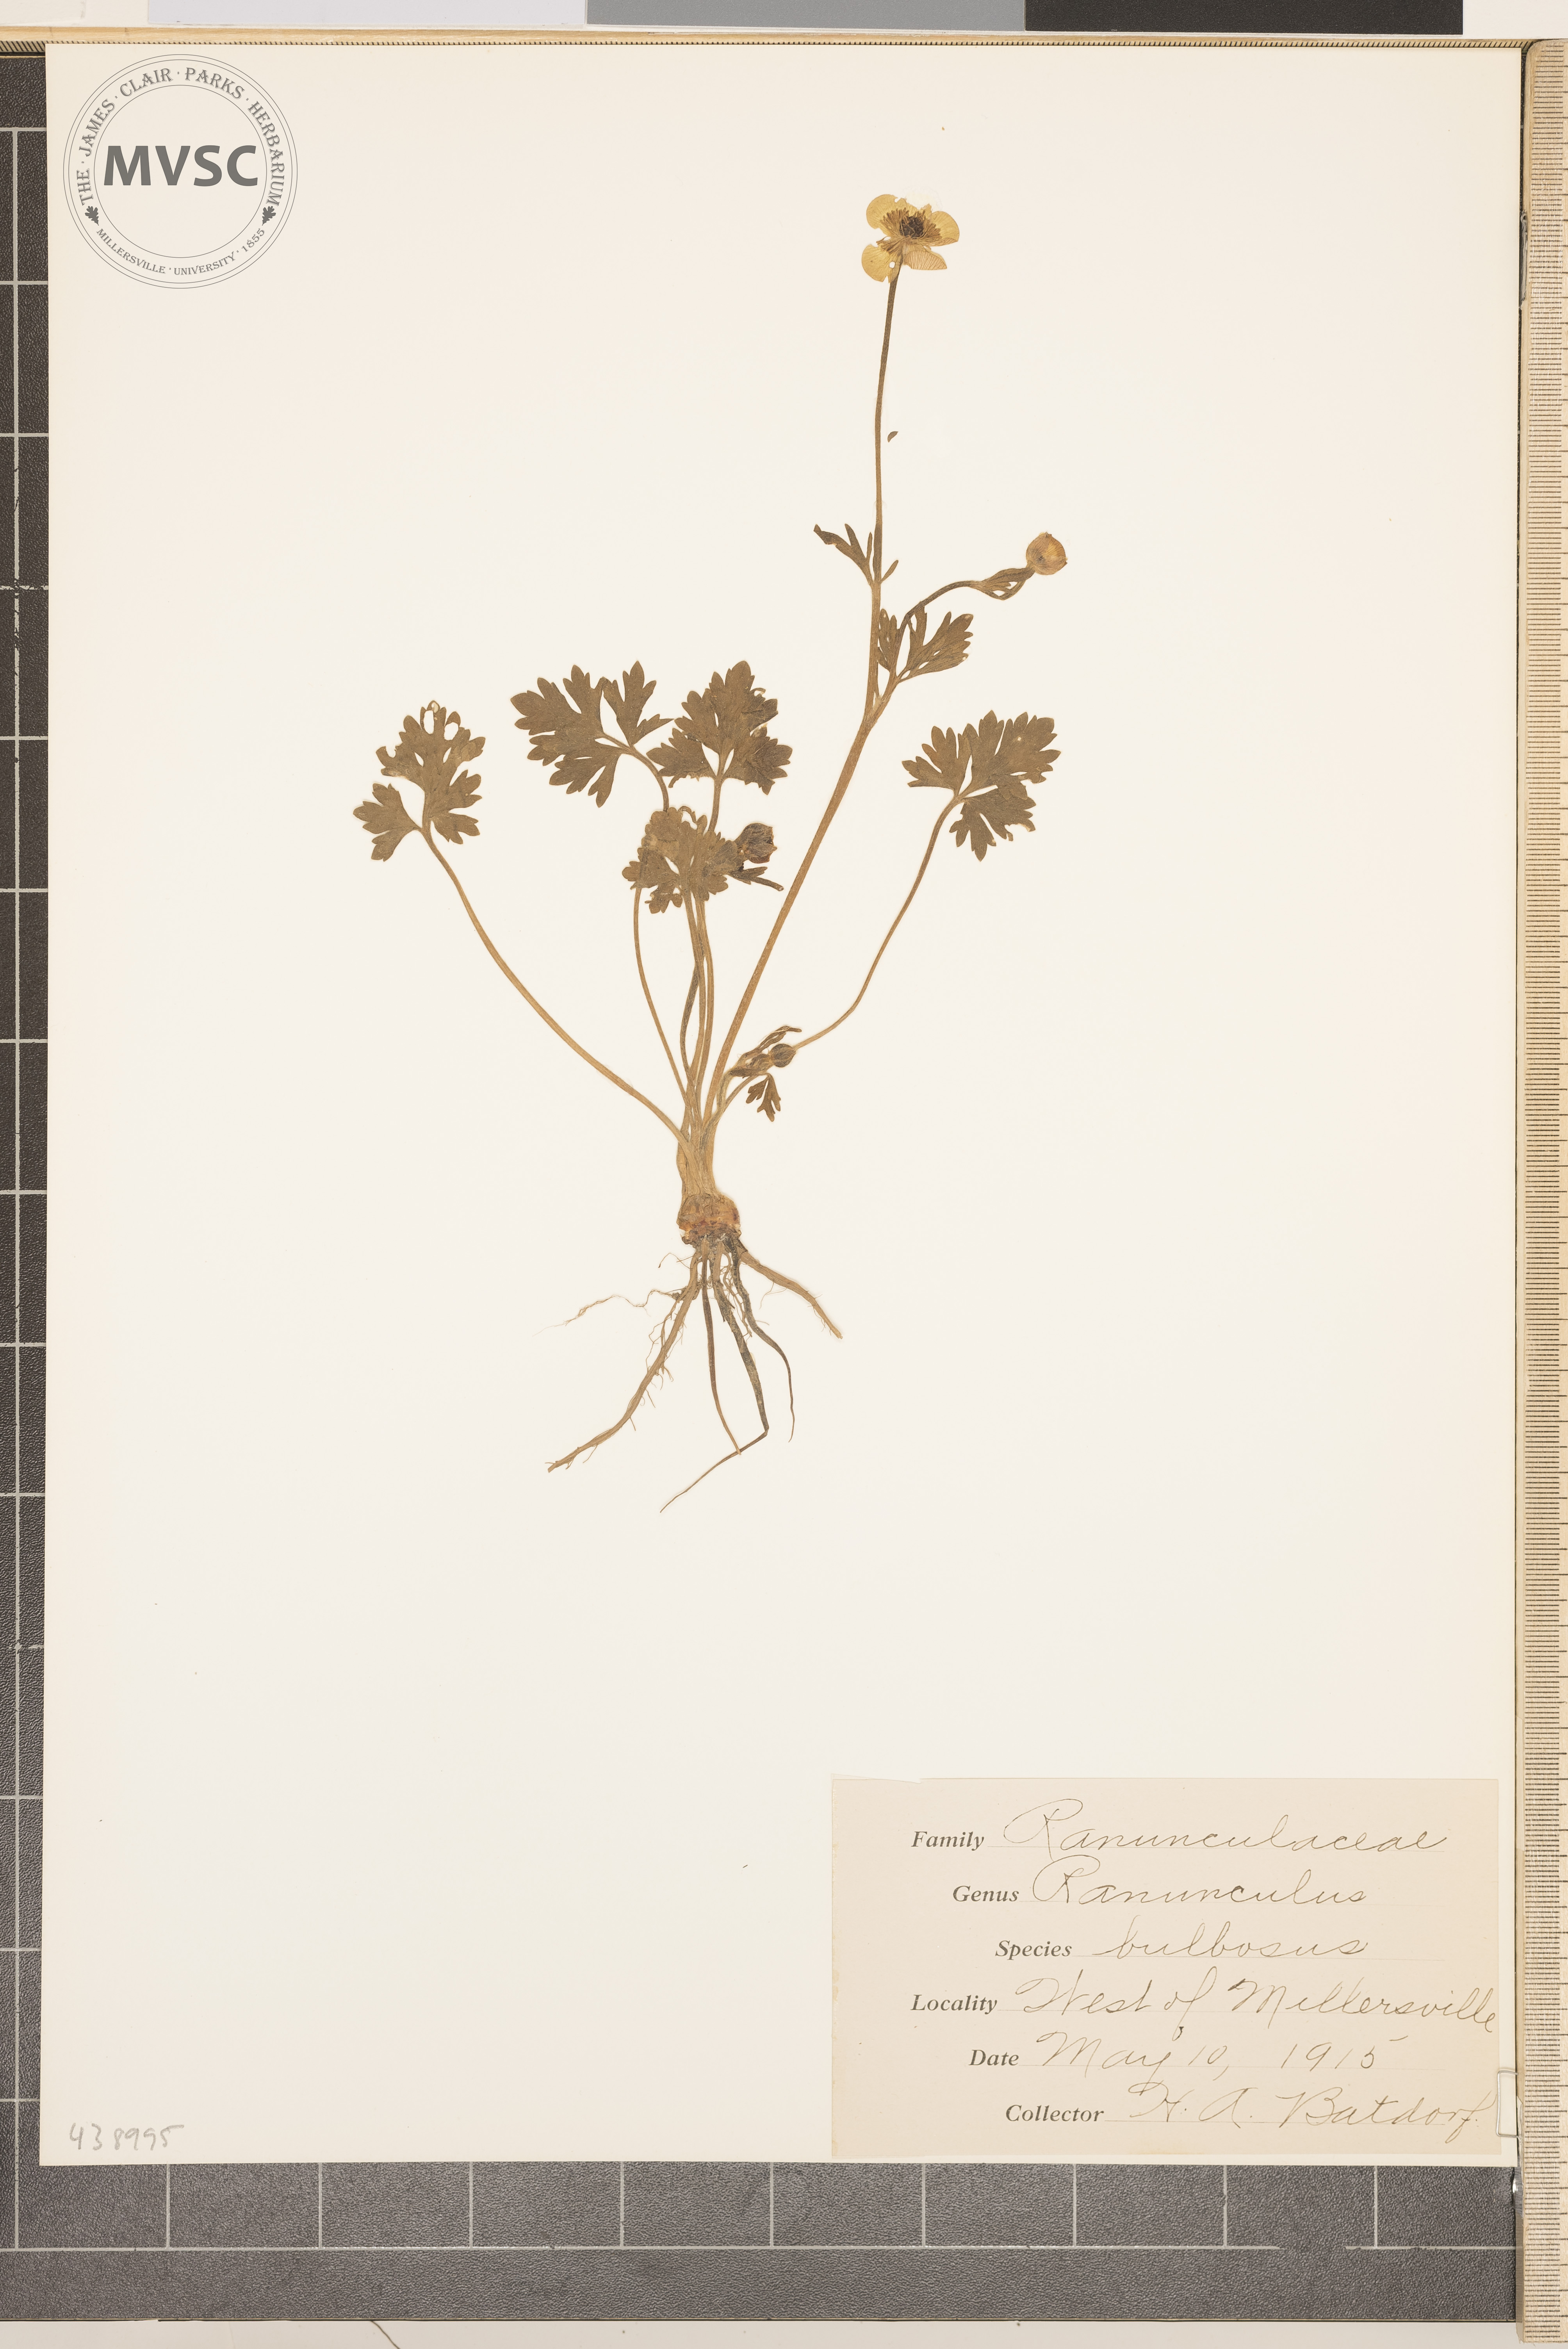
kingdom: Plantae
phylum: Tracheophyta
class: Magnoliopsida
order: Ranunculales
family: Ranunculaceae
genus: Ranunculus
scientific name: Ranunculus bulbosus
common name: Bulbous buttercup
